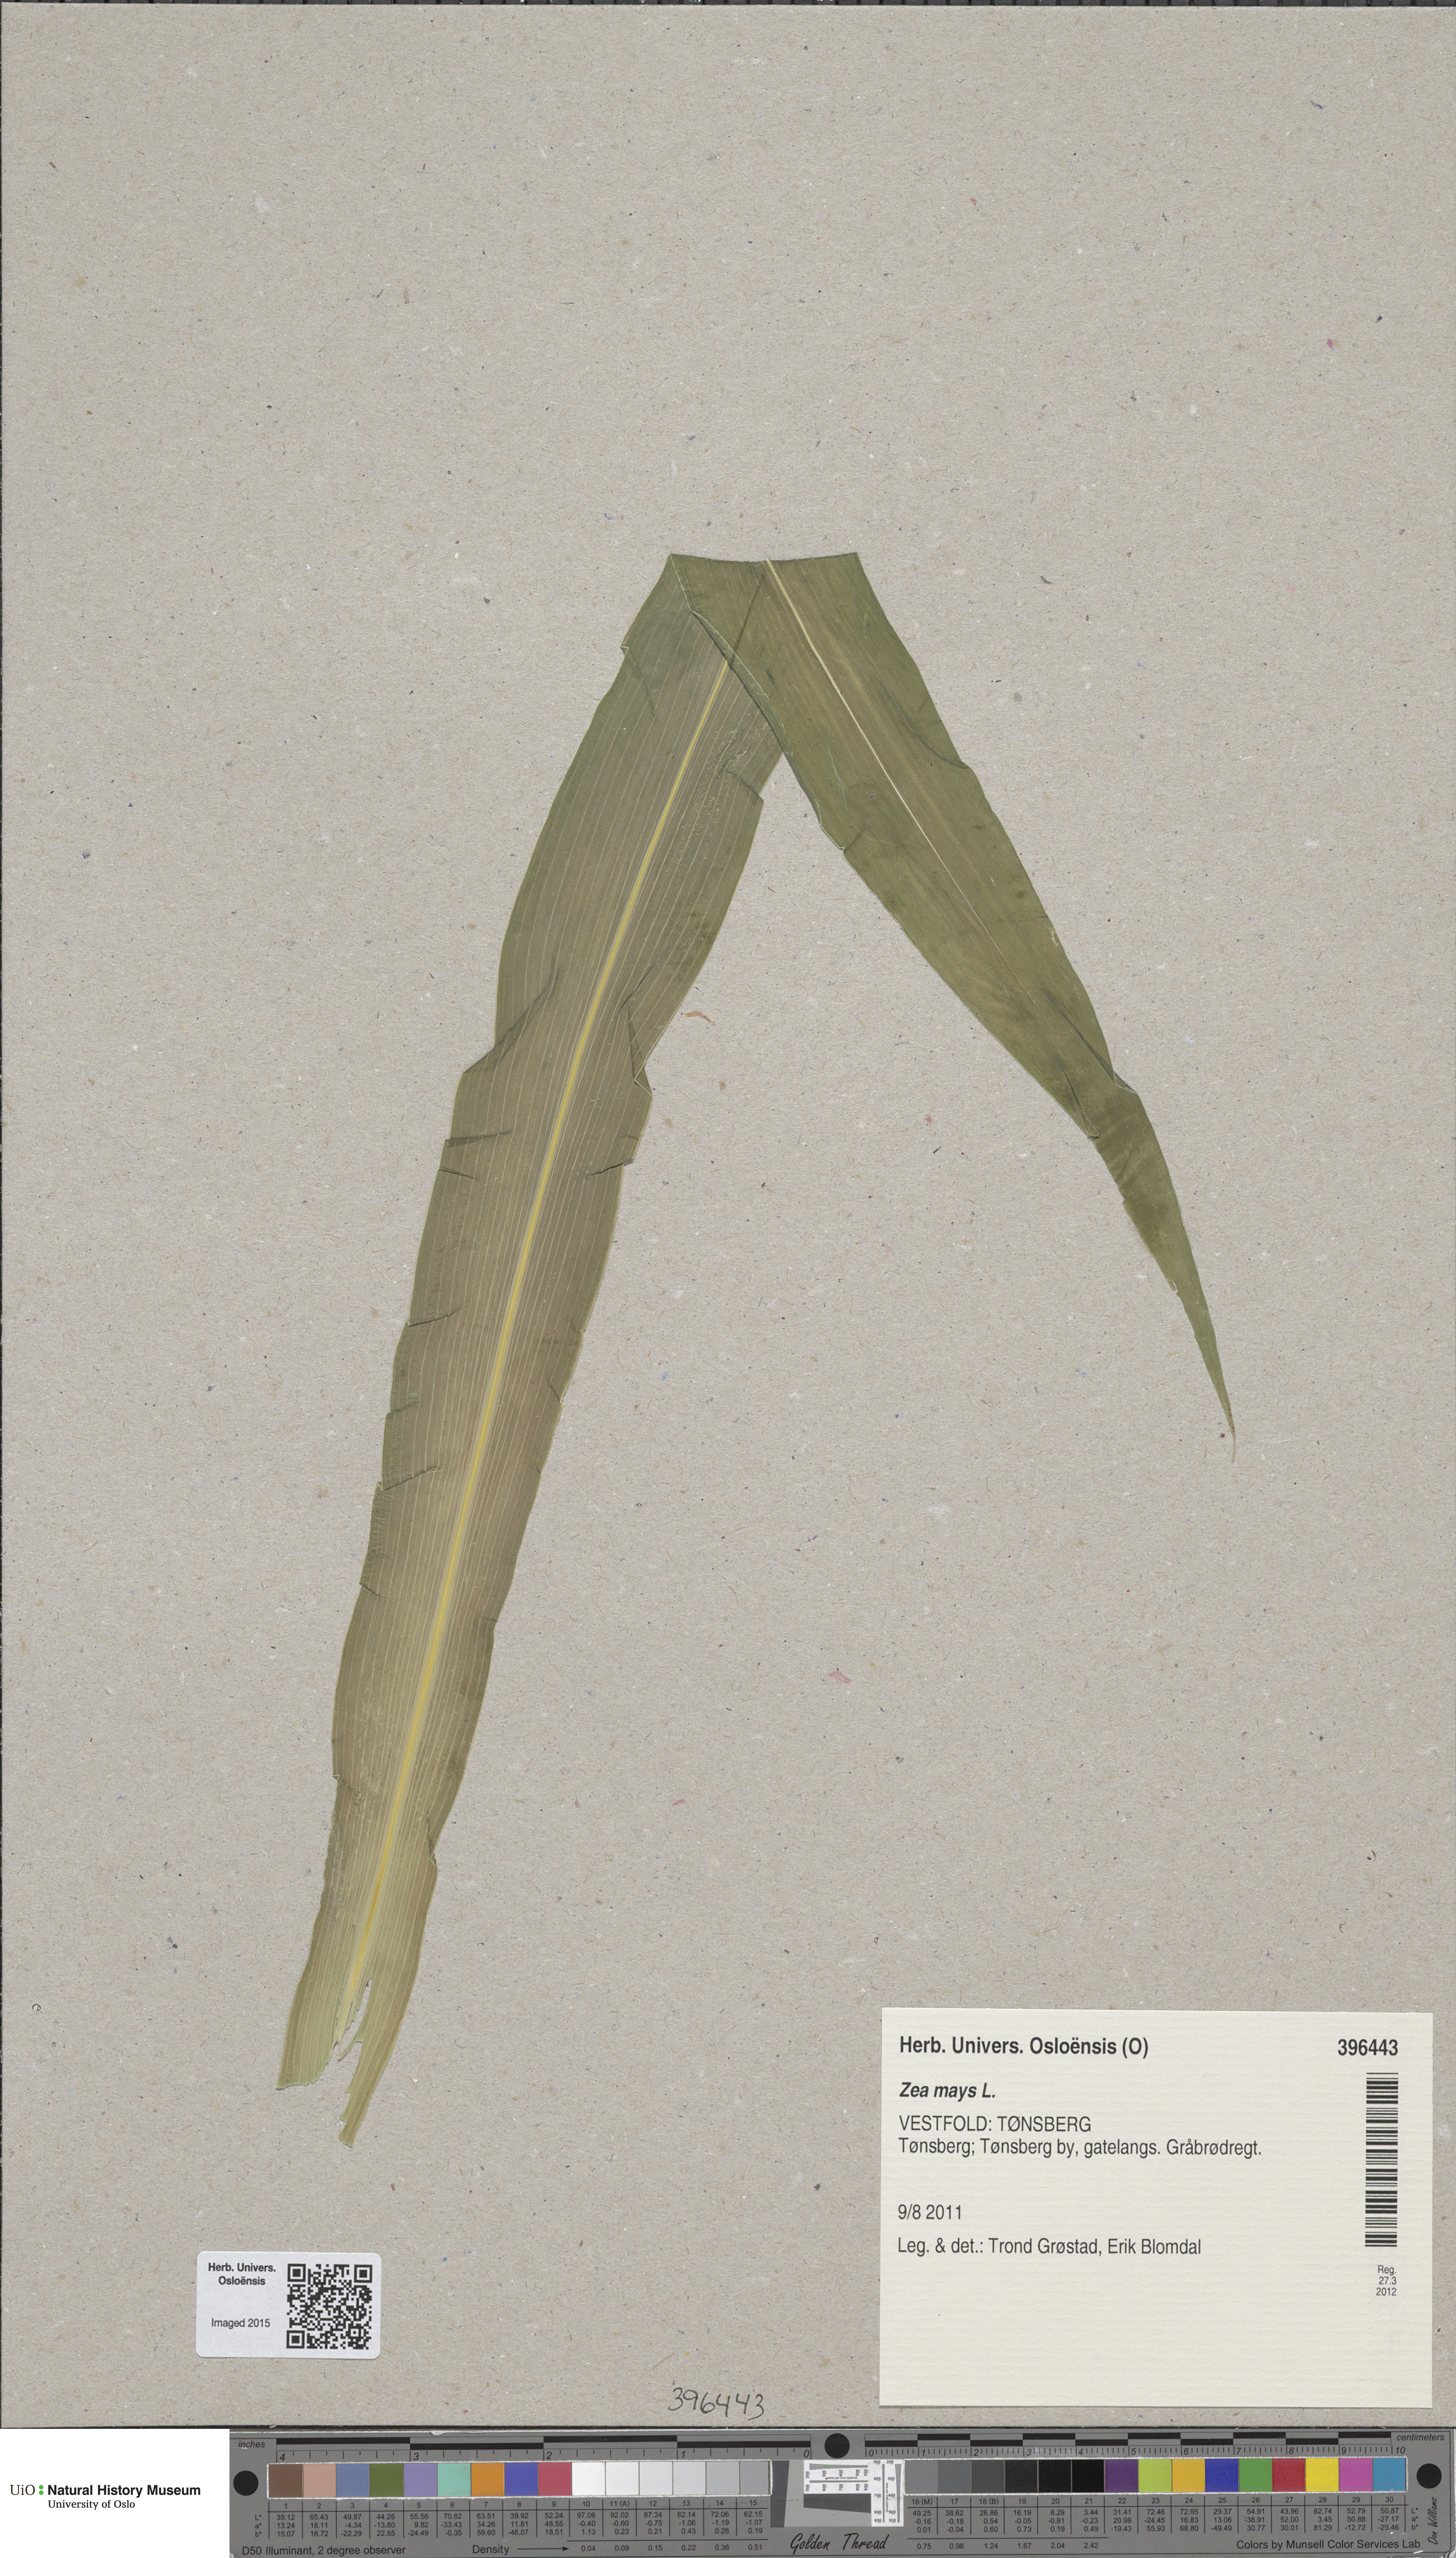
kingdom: Plantae
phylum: Tracheophyta
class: Liliopsida
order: Poales
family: Poaceae
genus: Zea
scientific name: Zea mays
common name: Maize
